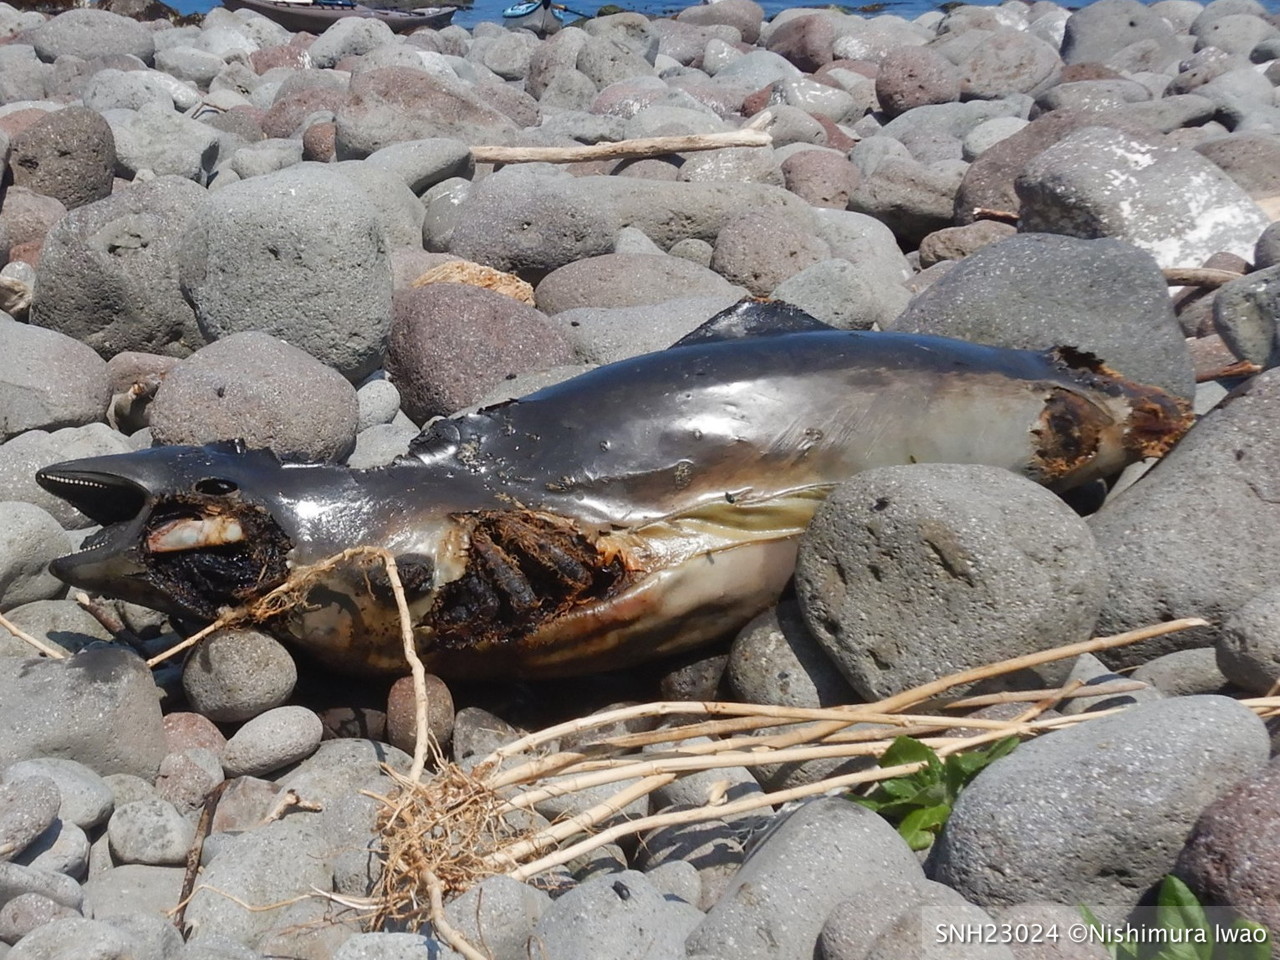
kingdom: Animalia
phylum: Chordata
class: Mammalia
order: Cetacea
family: Phocoenidae
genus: Phocoena
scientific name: Phocoena phocoena
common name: Harbour porpoise
